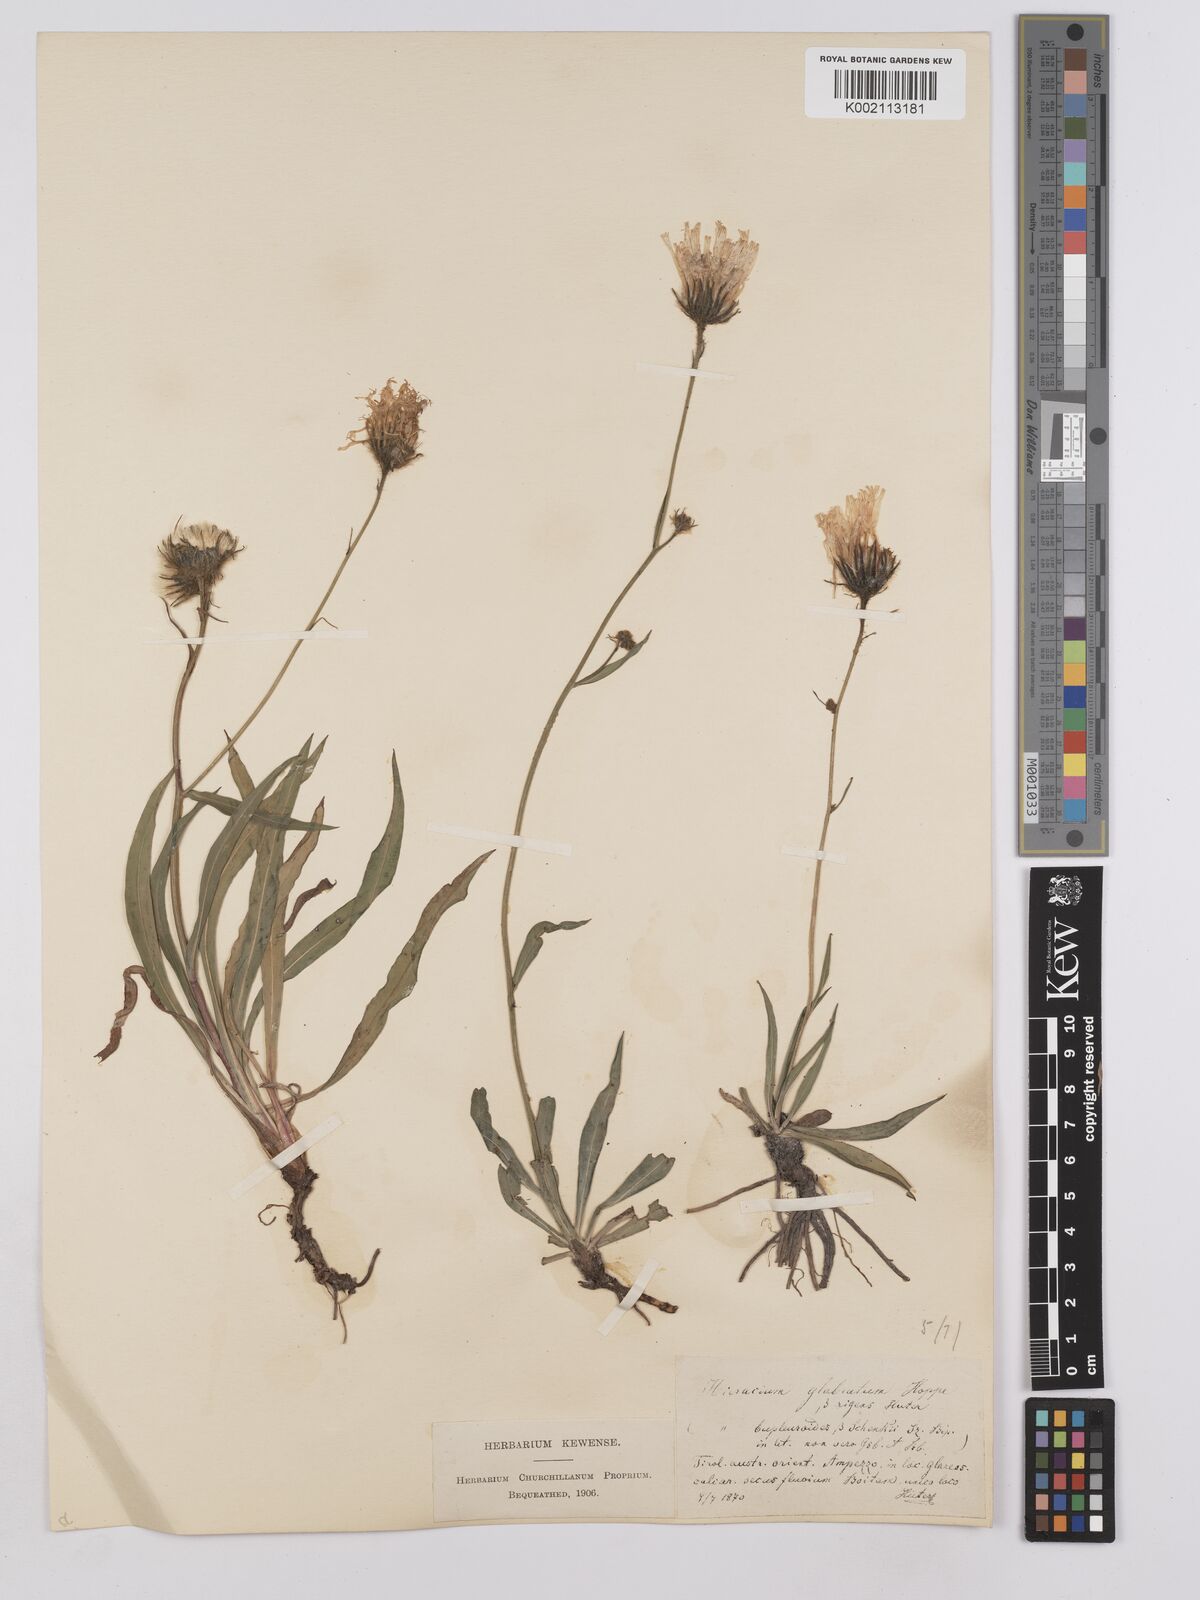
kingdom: Plantae
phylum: Tracheophyta
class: Magnoliopsida
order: Asterales
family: Asteraceae
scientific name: Asteraceae
